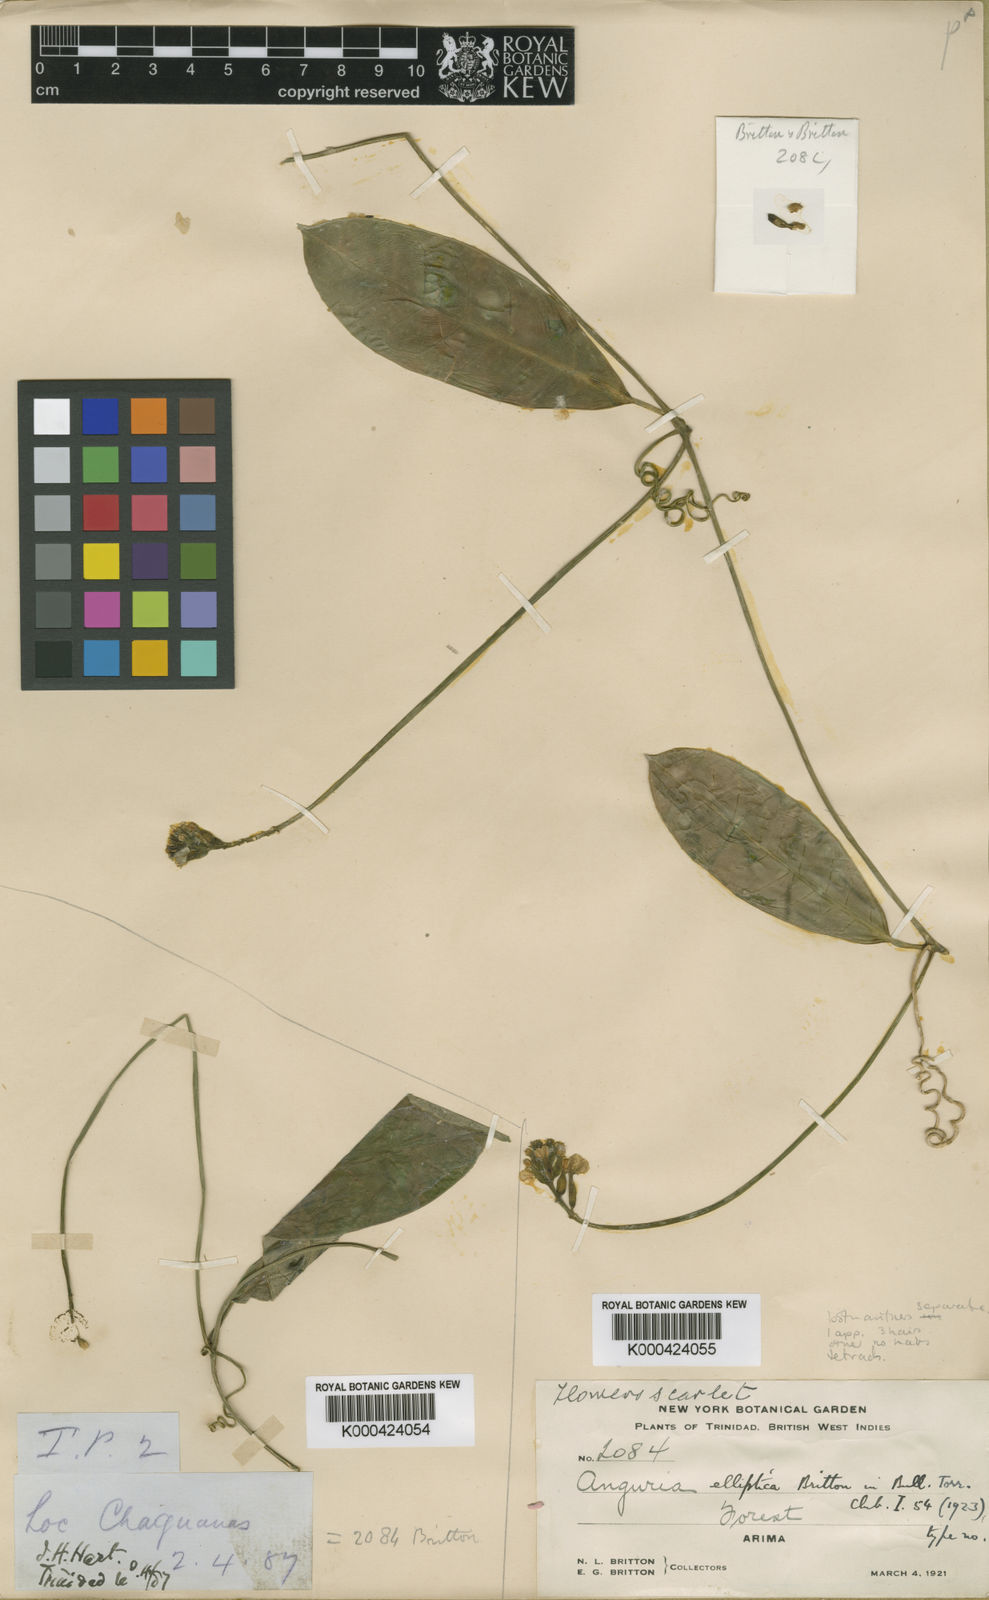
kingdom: Plantae
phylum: Tracheophyta
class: Magnoliopsida
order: Cucurbitales
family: Cucurbitaceae
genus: Psiguria
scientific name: Psiguria triphylla
